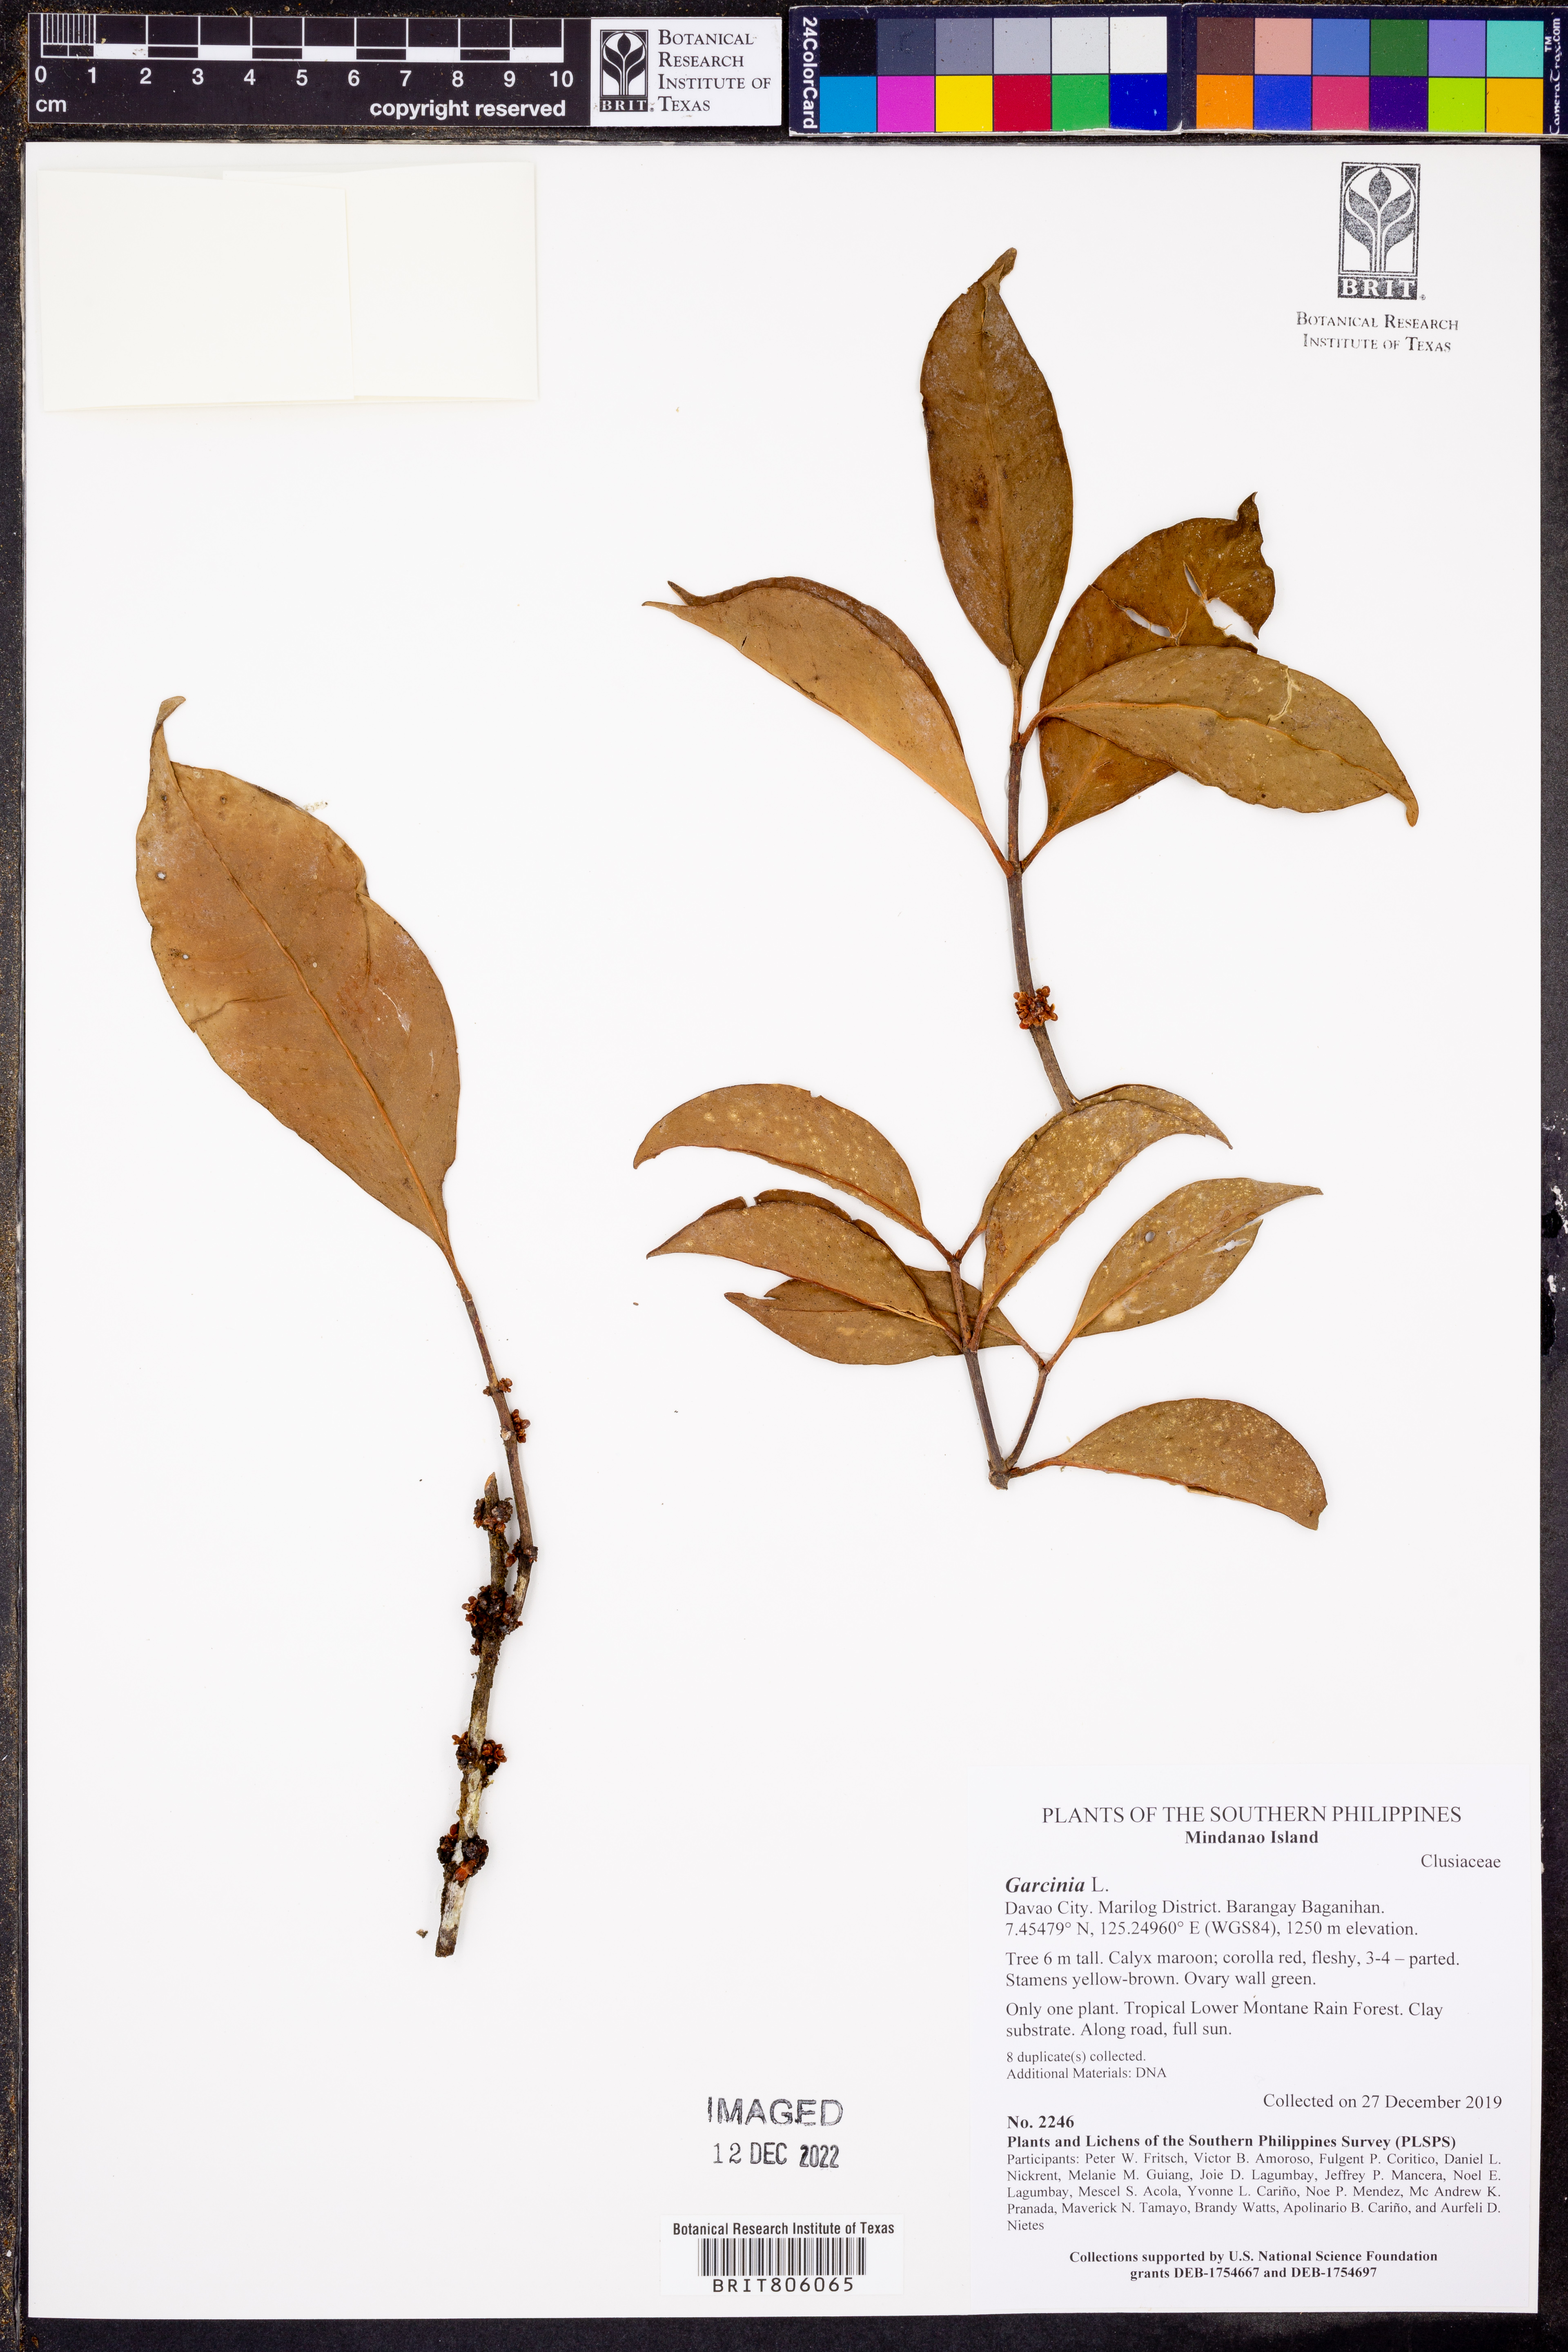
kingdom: Plantae
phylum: Tracheophyta
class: Magnoliopsida
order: Malpighiales
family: Clusiaceae
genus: Garcinia
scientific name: Garcinia
